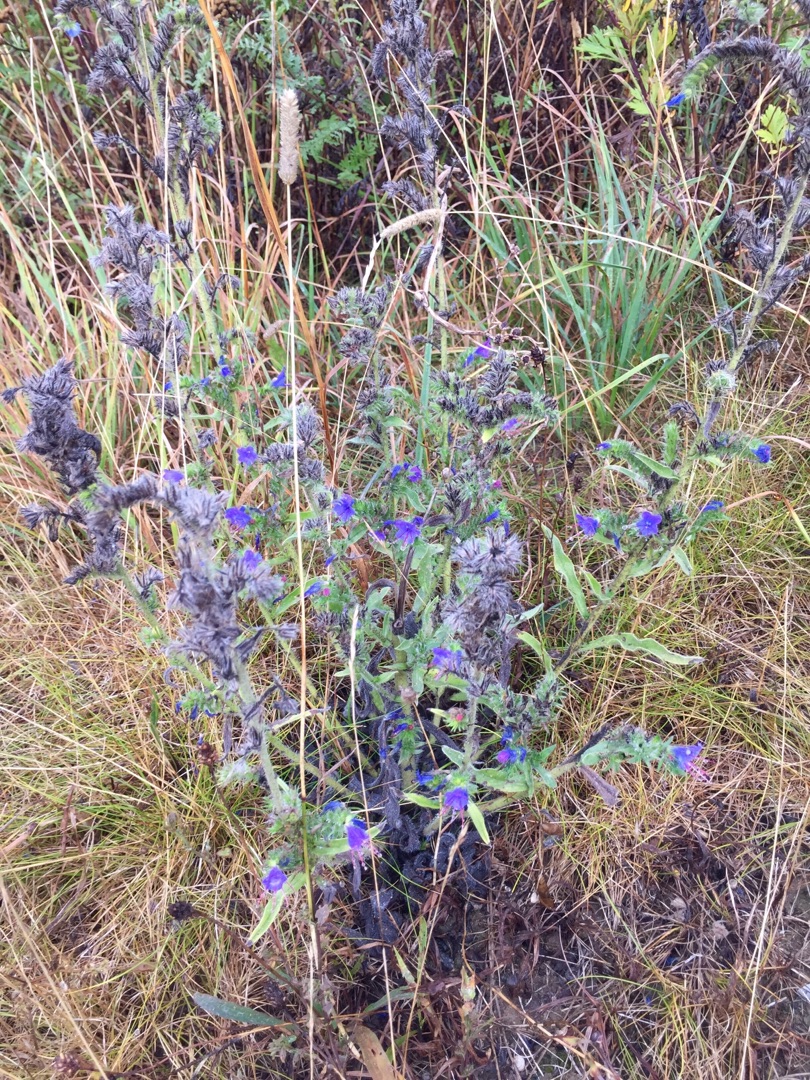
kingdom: Plantae
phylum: Tracheophyta
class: Magnoliopsida
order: Boraginales
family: Boraginaceae
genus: Echium
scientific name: Echium vulgare
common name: Slangehoved
